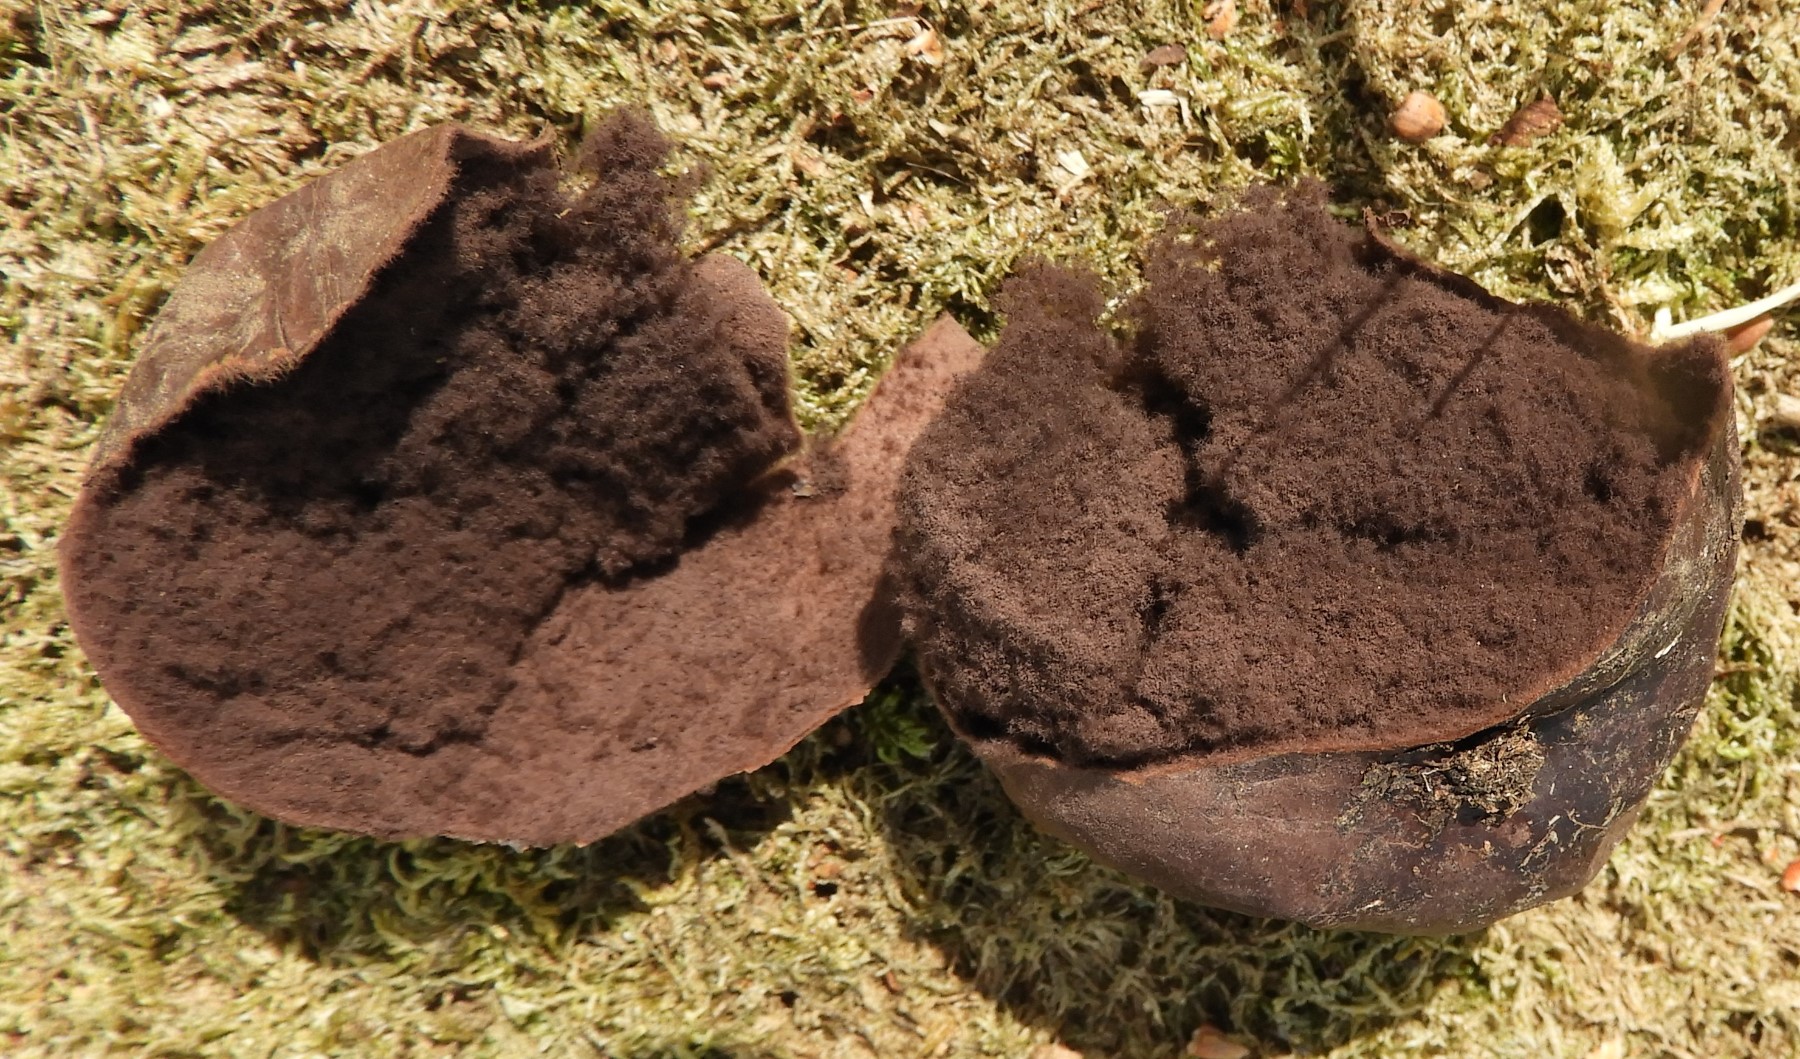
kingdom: Fungi
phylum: Basidiomycota
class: Agaricomycetes
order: Agaricales
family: Lycoperdaceae
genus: Bovista
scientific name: Bovista nigrescens
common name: sortagtig bovist
